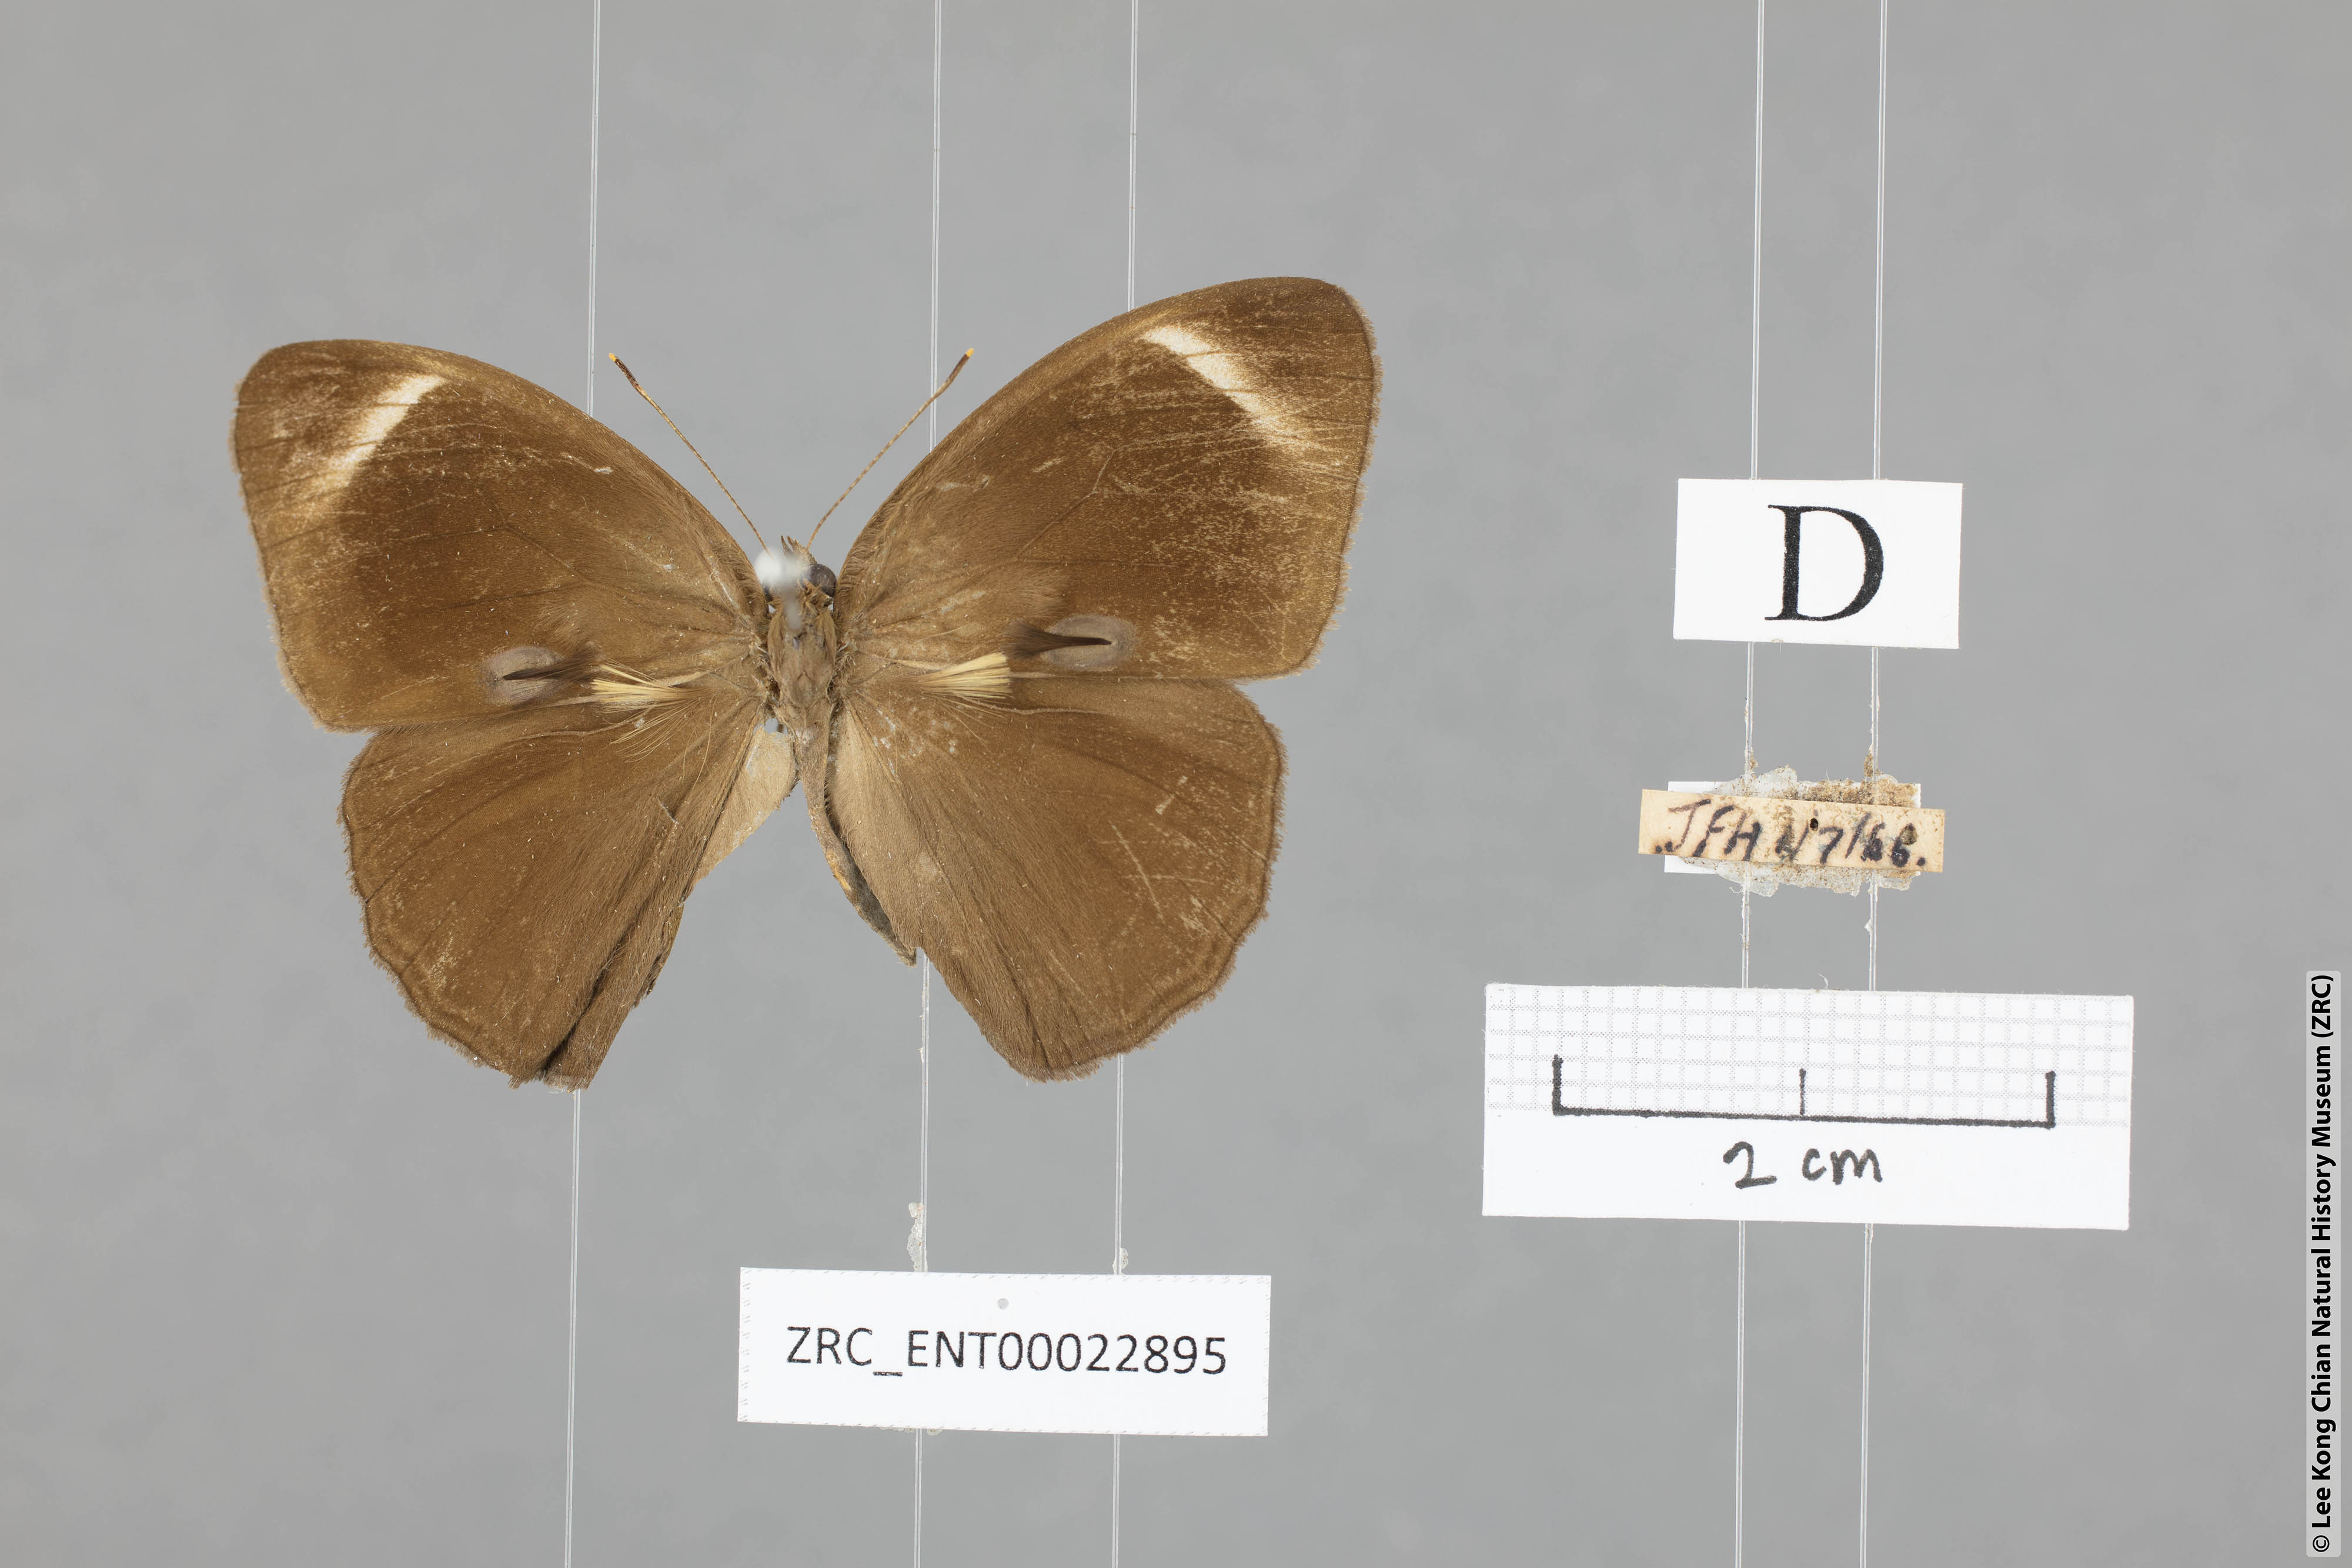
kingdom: Animalia
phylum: Arthropoda
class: Insecta
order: Lepidoptera
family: Nymphalidae
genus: Mycalesis
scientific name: Mycalesis anaxias
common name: White-bar bushbrown
